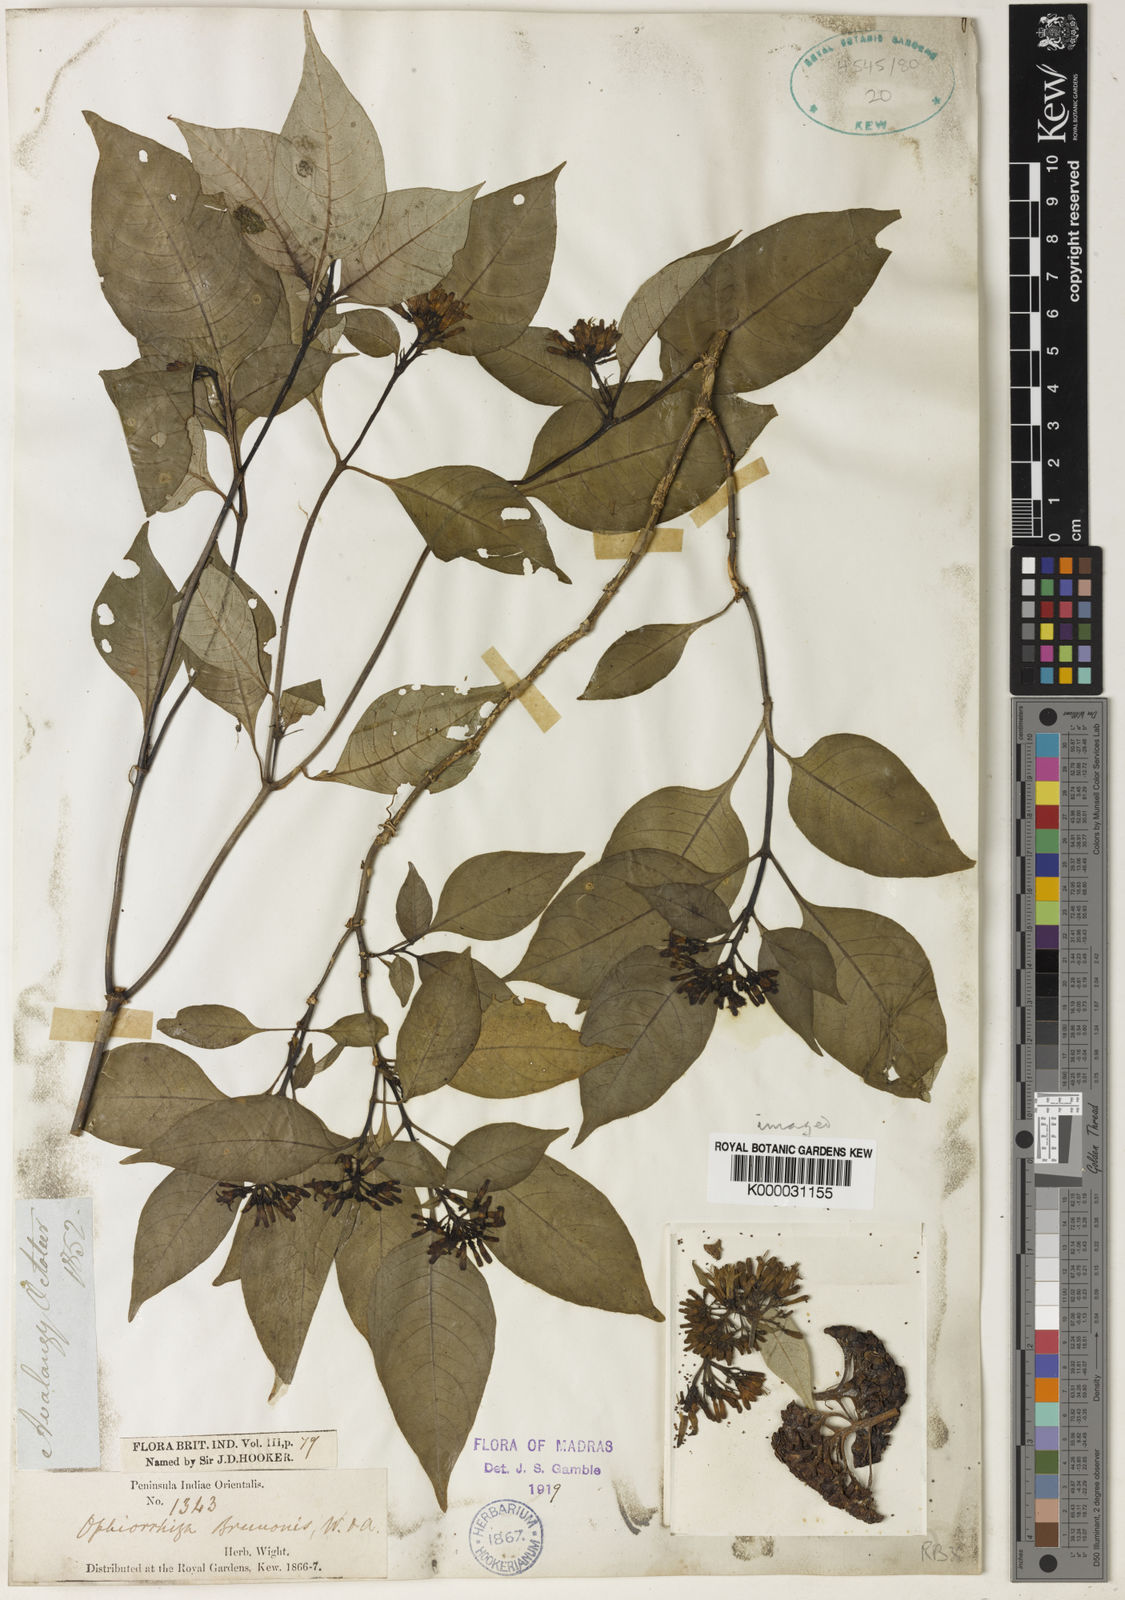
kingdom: Plantae
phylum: Tracheophyta
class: Magnoliopsida
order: Gentianales
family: Rubiaceae
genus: Ophiorrhiza
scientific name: Ophiorrhiza brunonis
